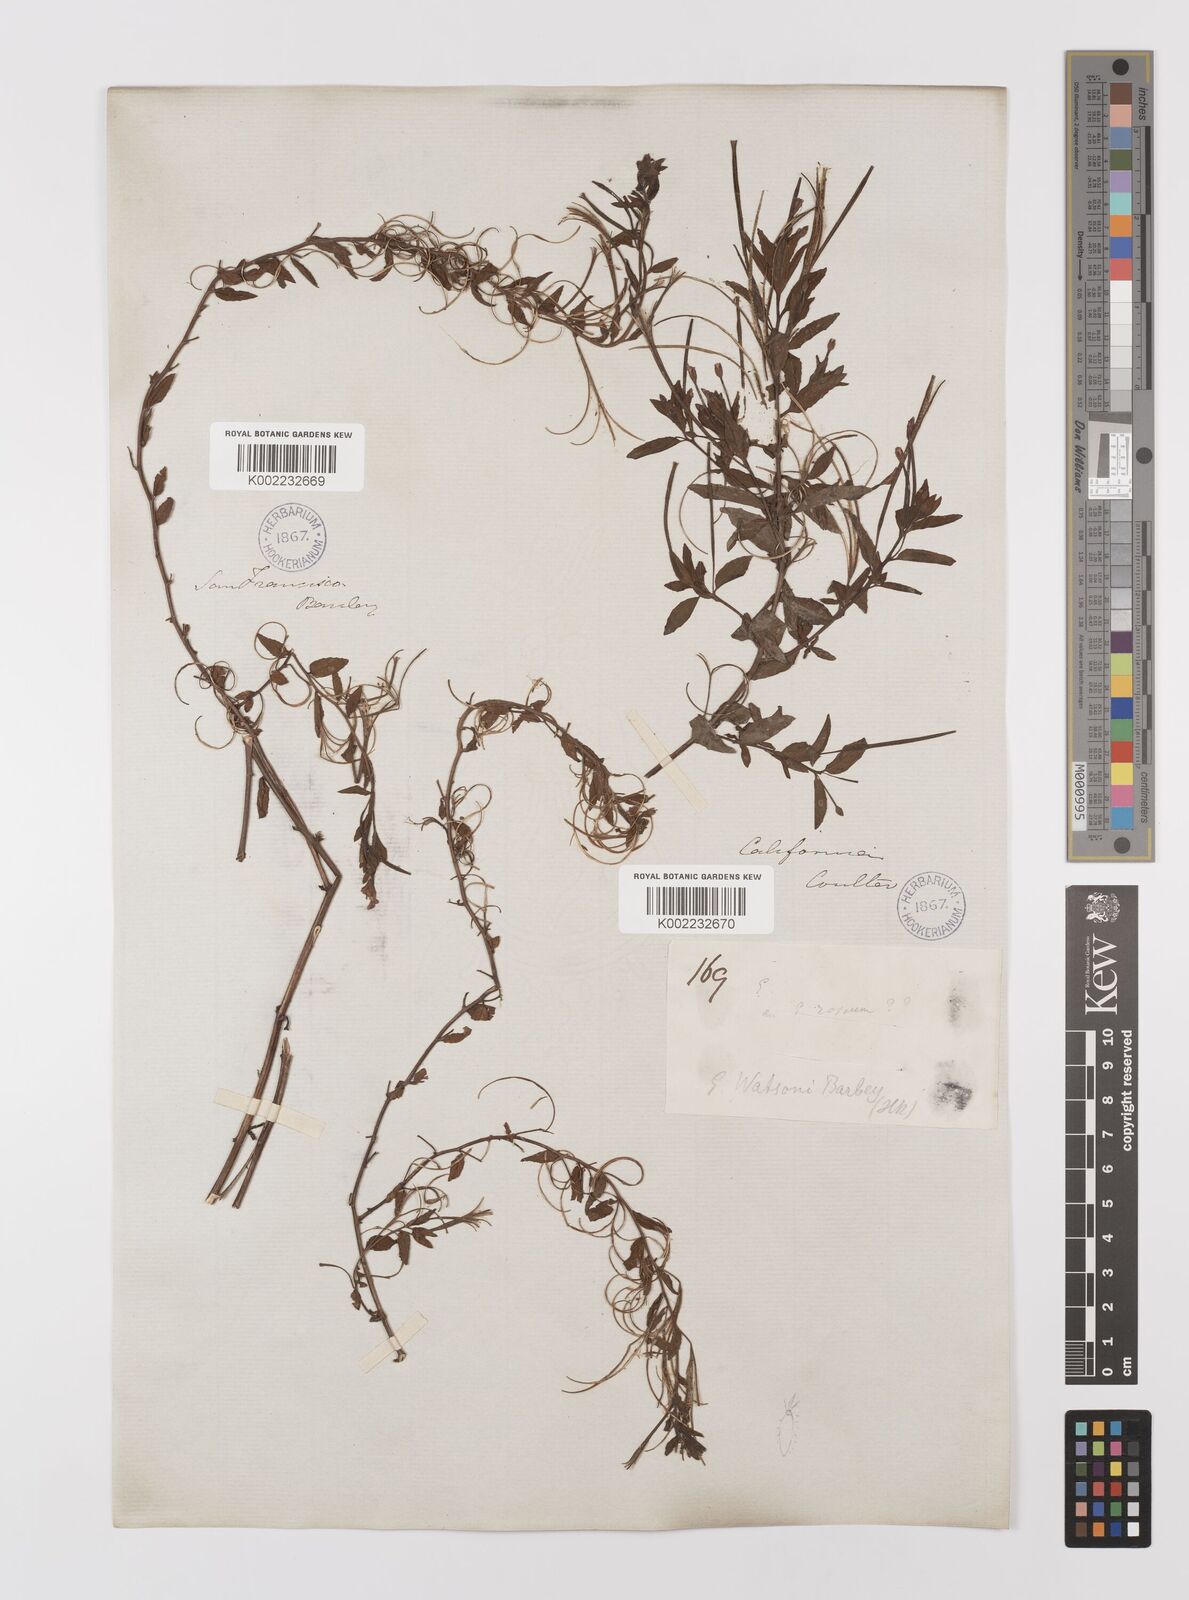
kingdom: Plantae
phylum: Tracheophyta
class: Magnoliopsida
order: Myrtales
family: Onagraceae
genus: Epilobium
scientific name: Epilobium ciliatum
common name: American willowherb
